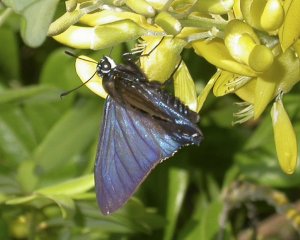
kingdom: Animalia
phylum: Arthropoda
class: Insecta
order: Lepidoptera
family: Hesperiidae
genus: Phocides
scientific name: Phocides pigmalion
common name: Mangrove Skipper
